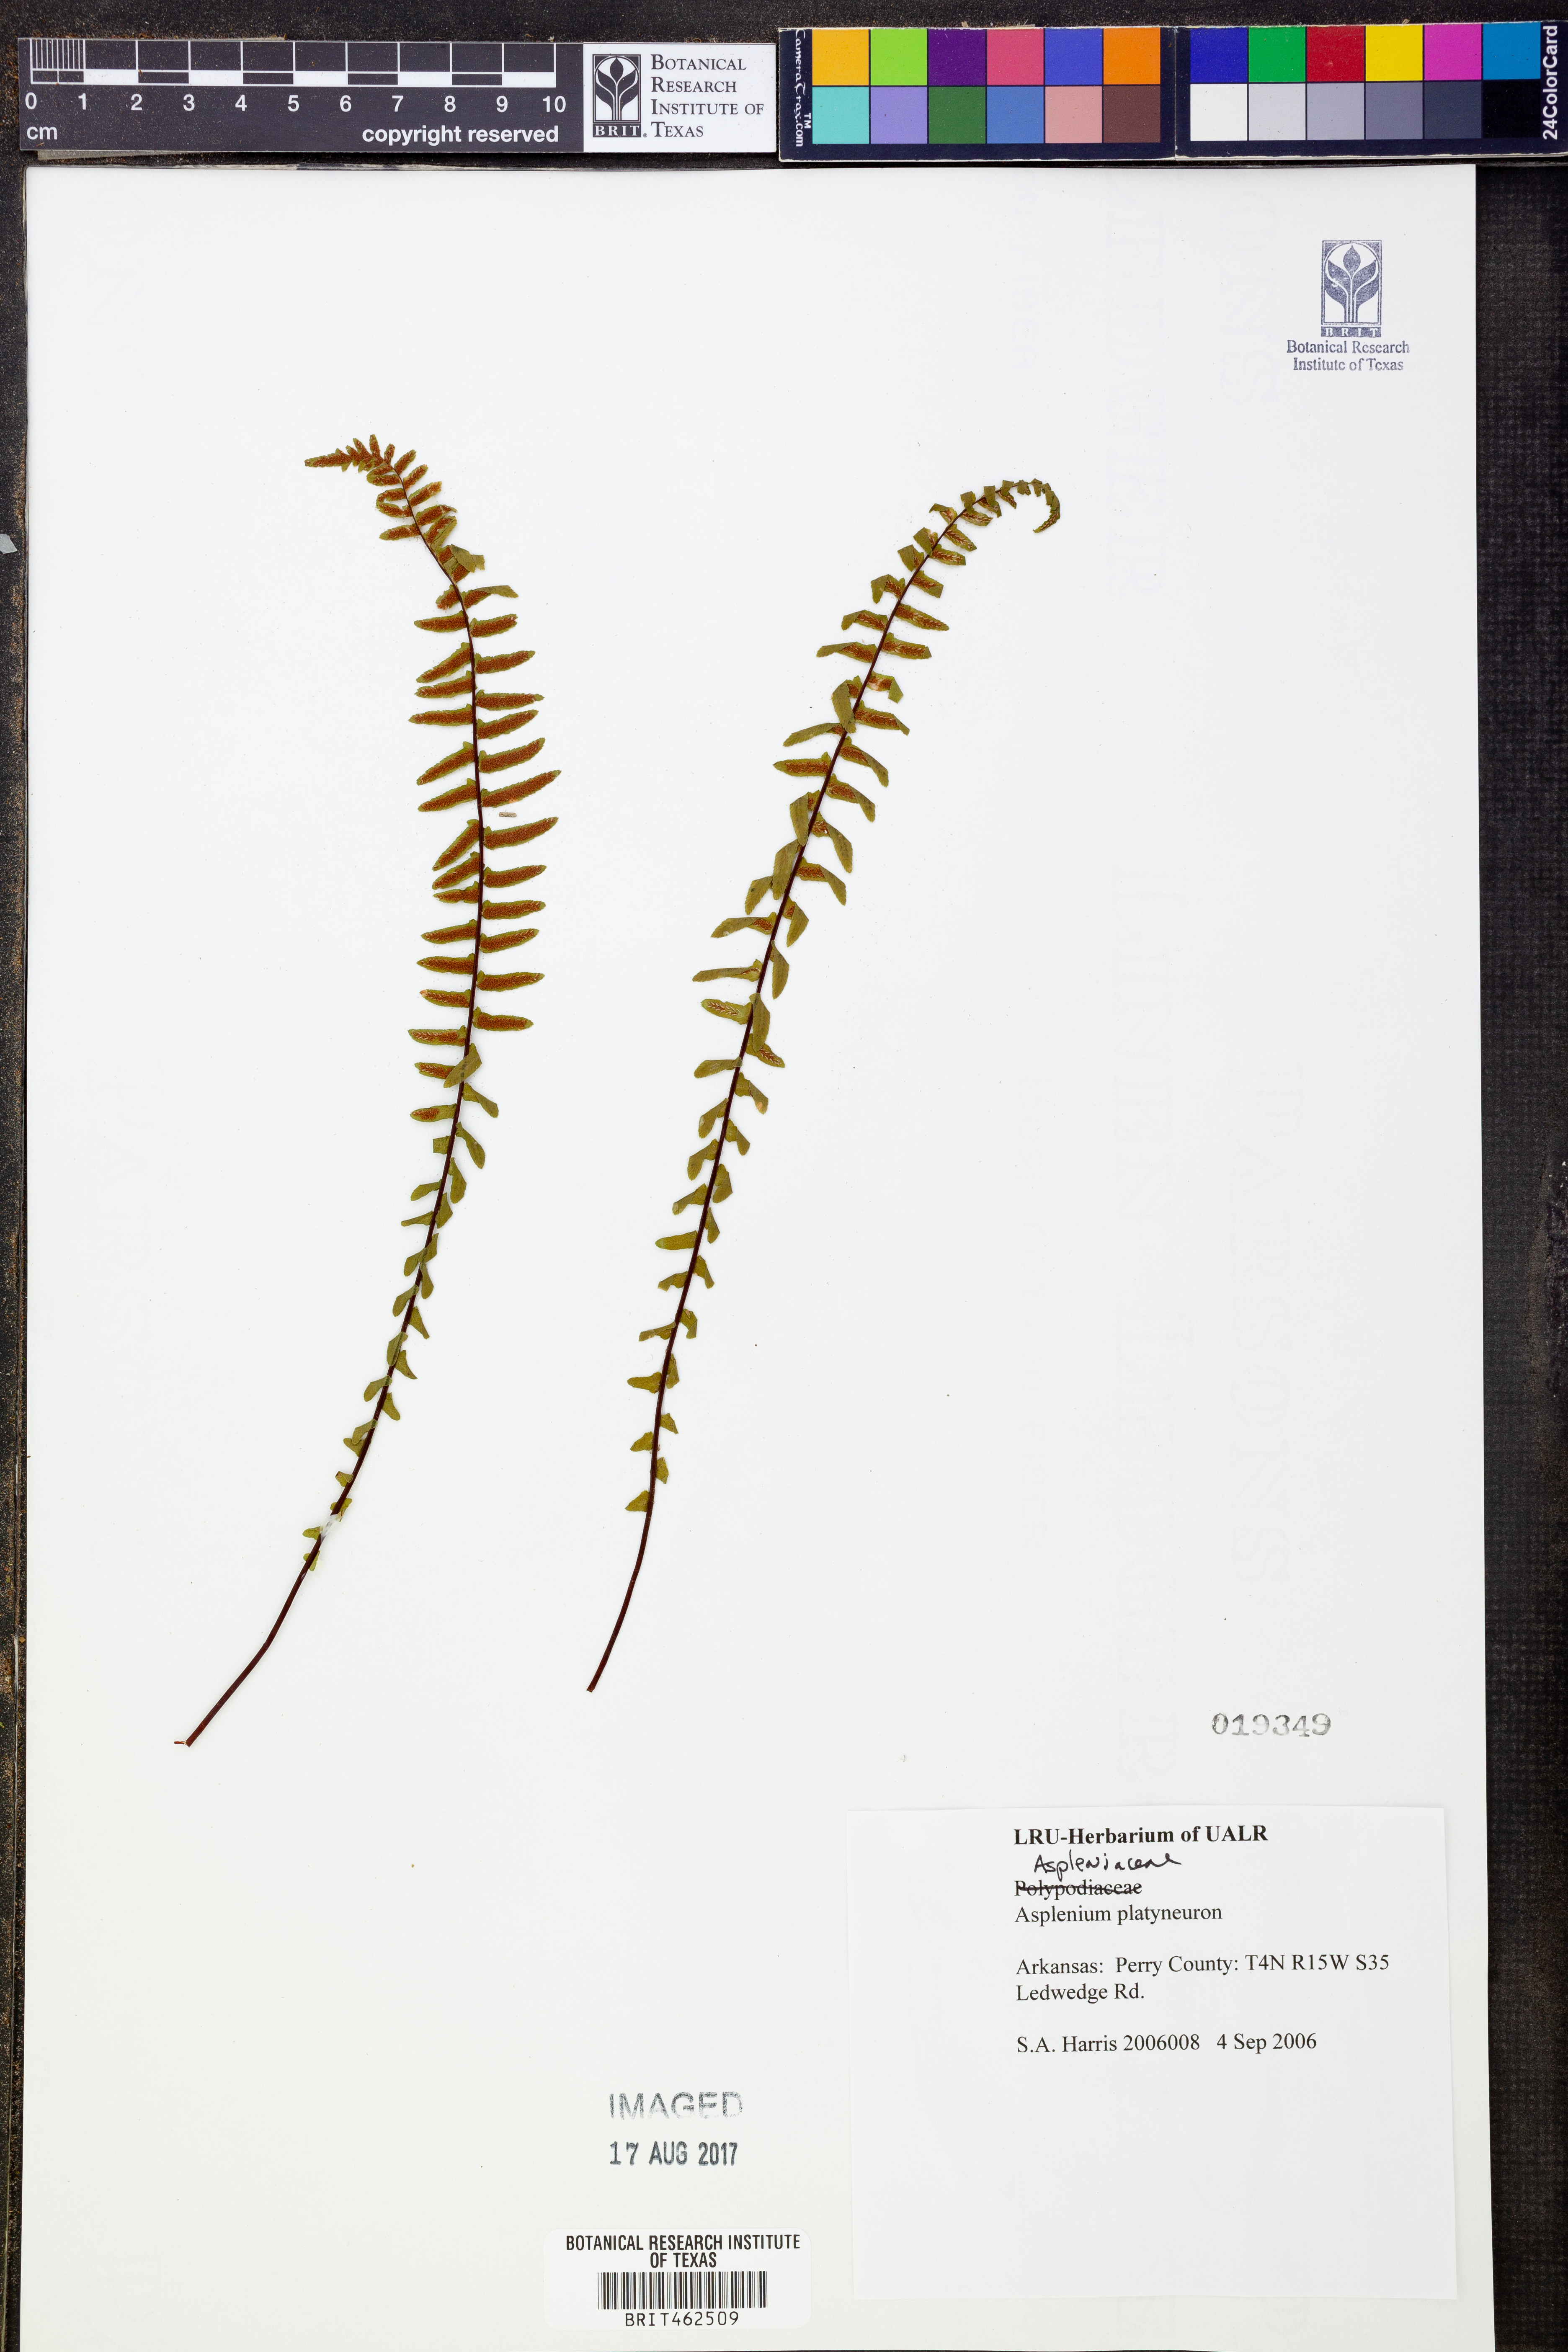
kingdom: Plantae
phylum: Tracheophyta
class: Polypodiopsida
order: Polypodiales
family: Aspleniaceae
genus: Asplenium
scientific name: Asplenium platyneuron
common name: Ebony spleenwort
